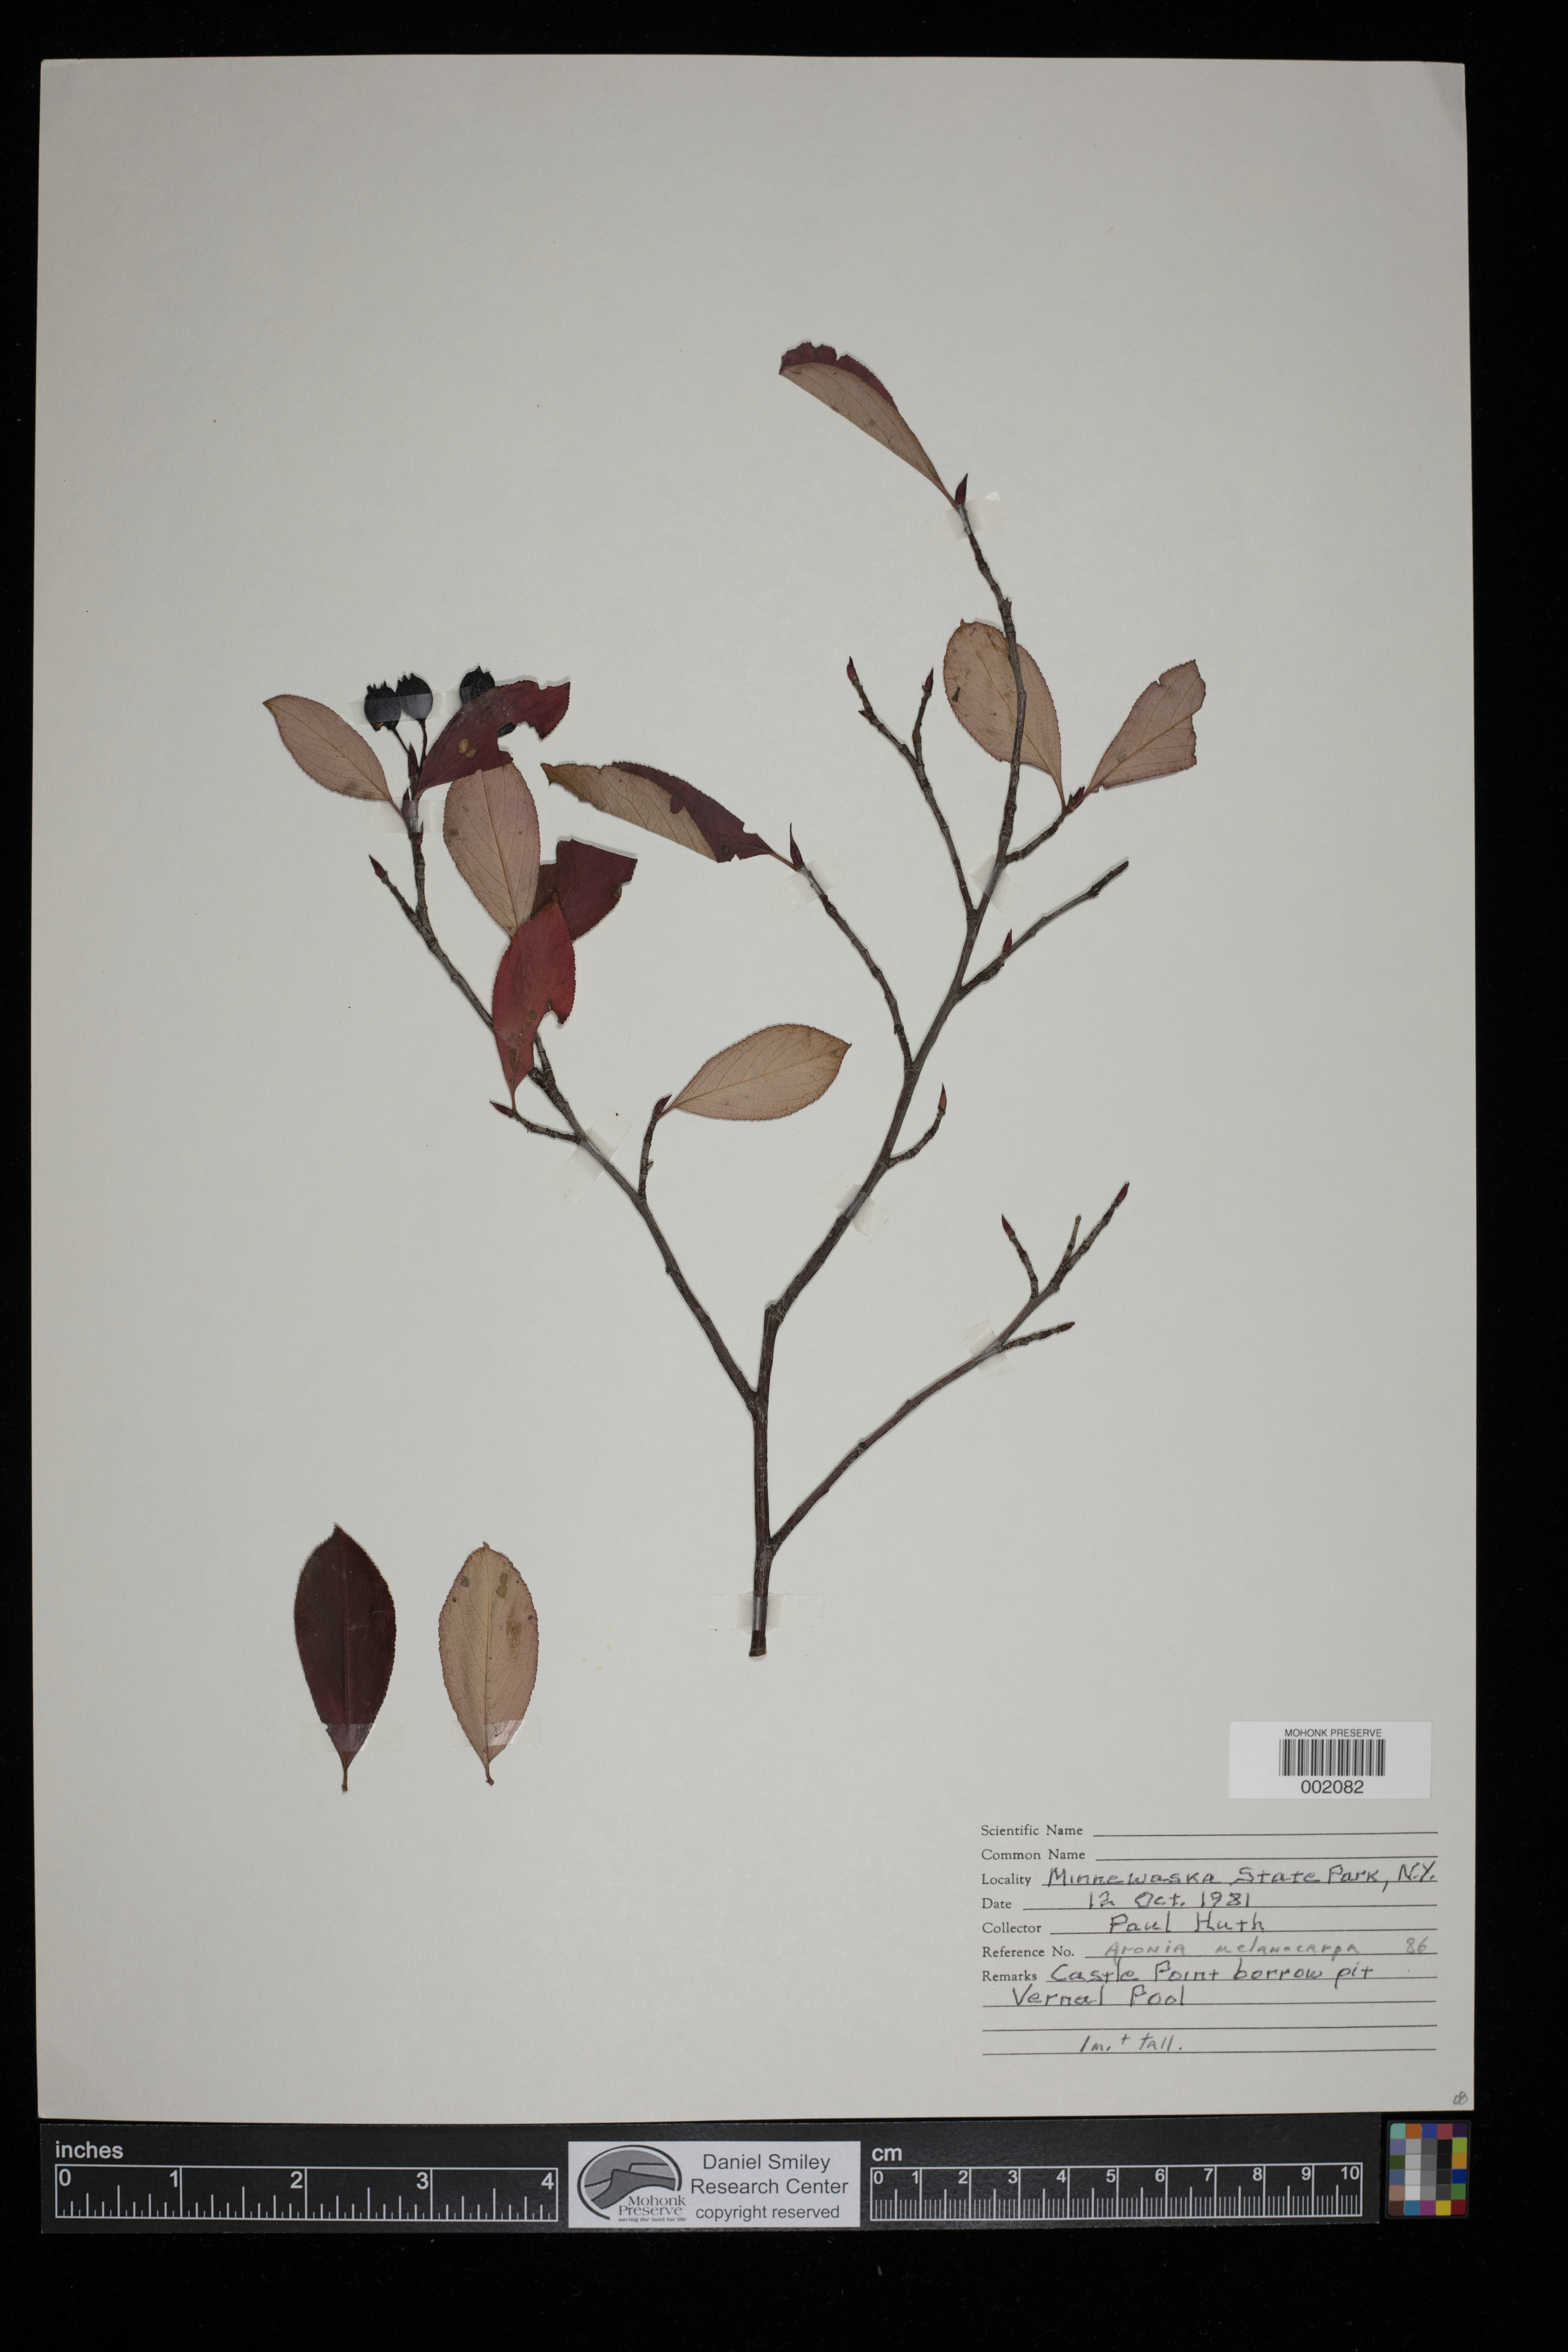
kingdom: Plantae
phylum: Tracheophyta
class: Magnoliopsida
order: Rosales
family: Rosaceae
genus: Aronia
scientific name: Aronia melanocarpa
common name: Black chokeberry
